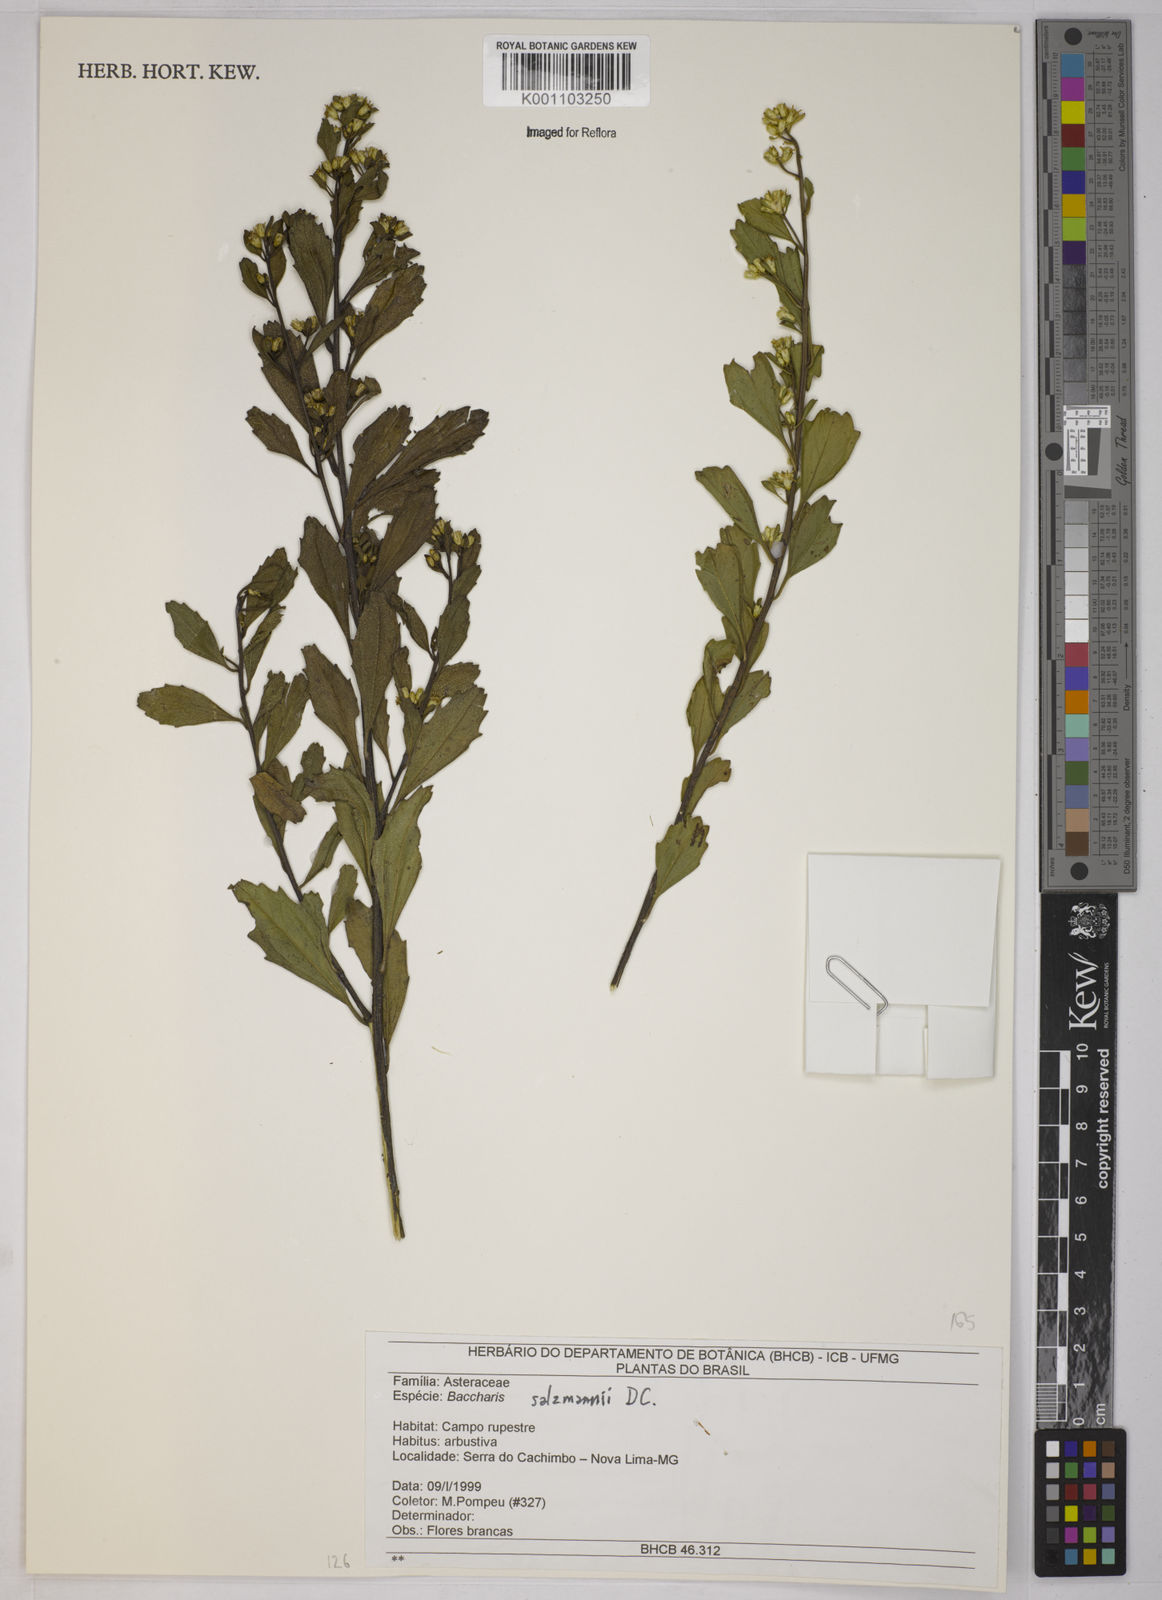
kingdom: Plantae
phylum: Tracheophyta
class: Magnoliopsida
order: Asterales
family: Asteraceae
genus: Baccharis
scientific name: Baccharis retusa
